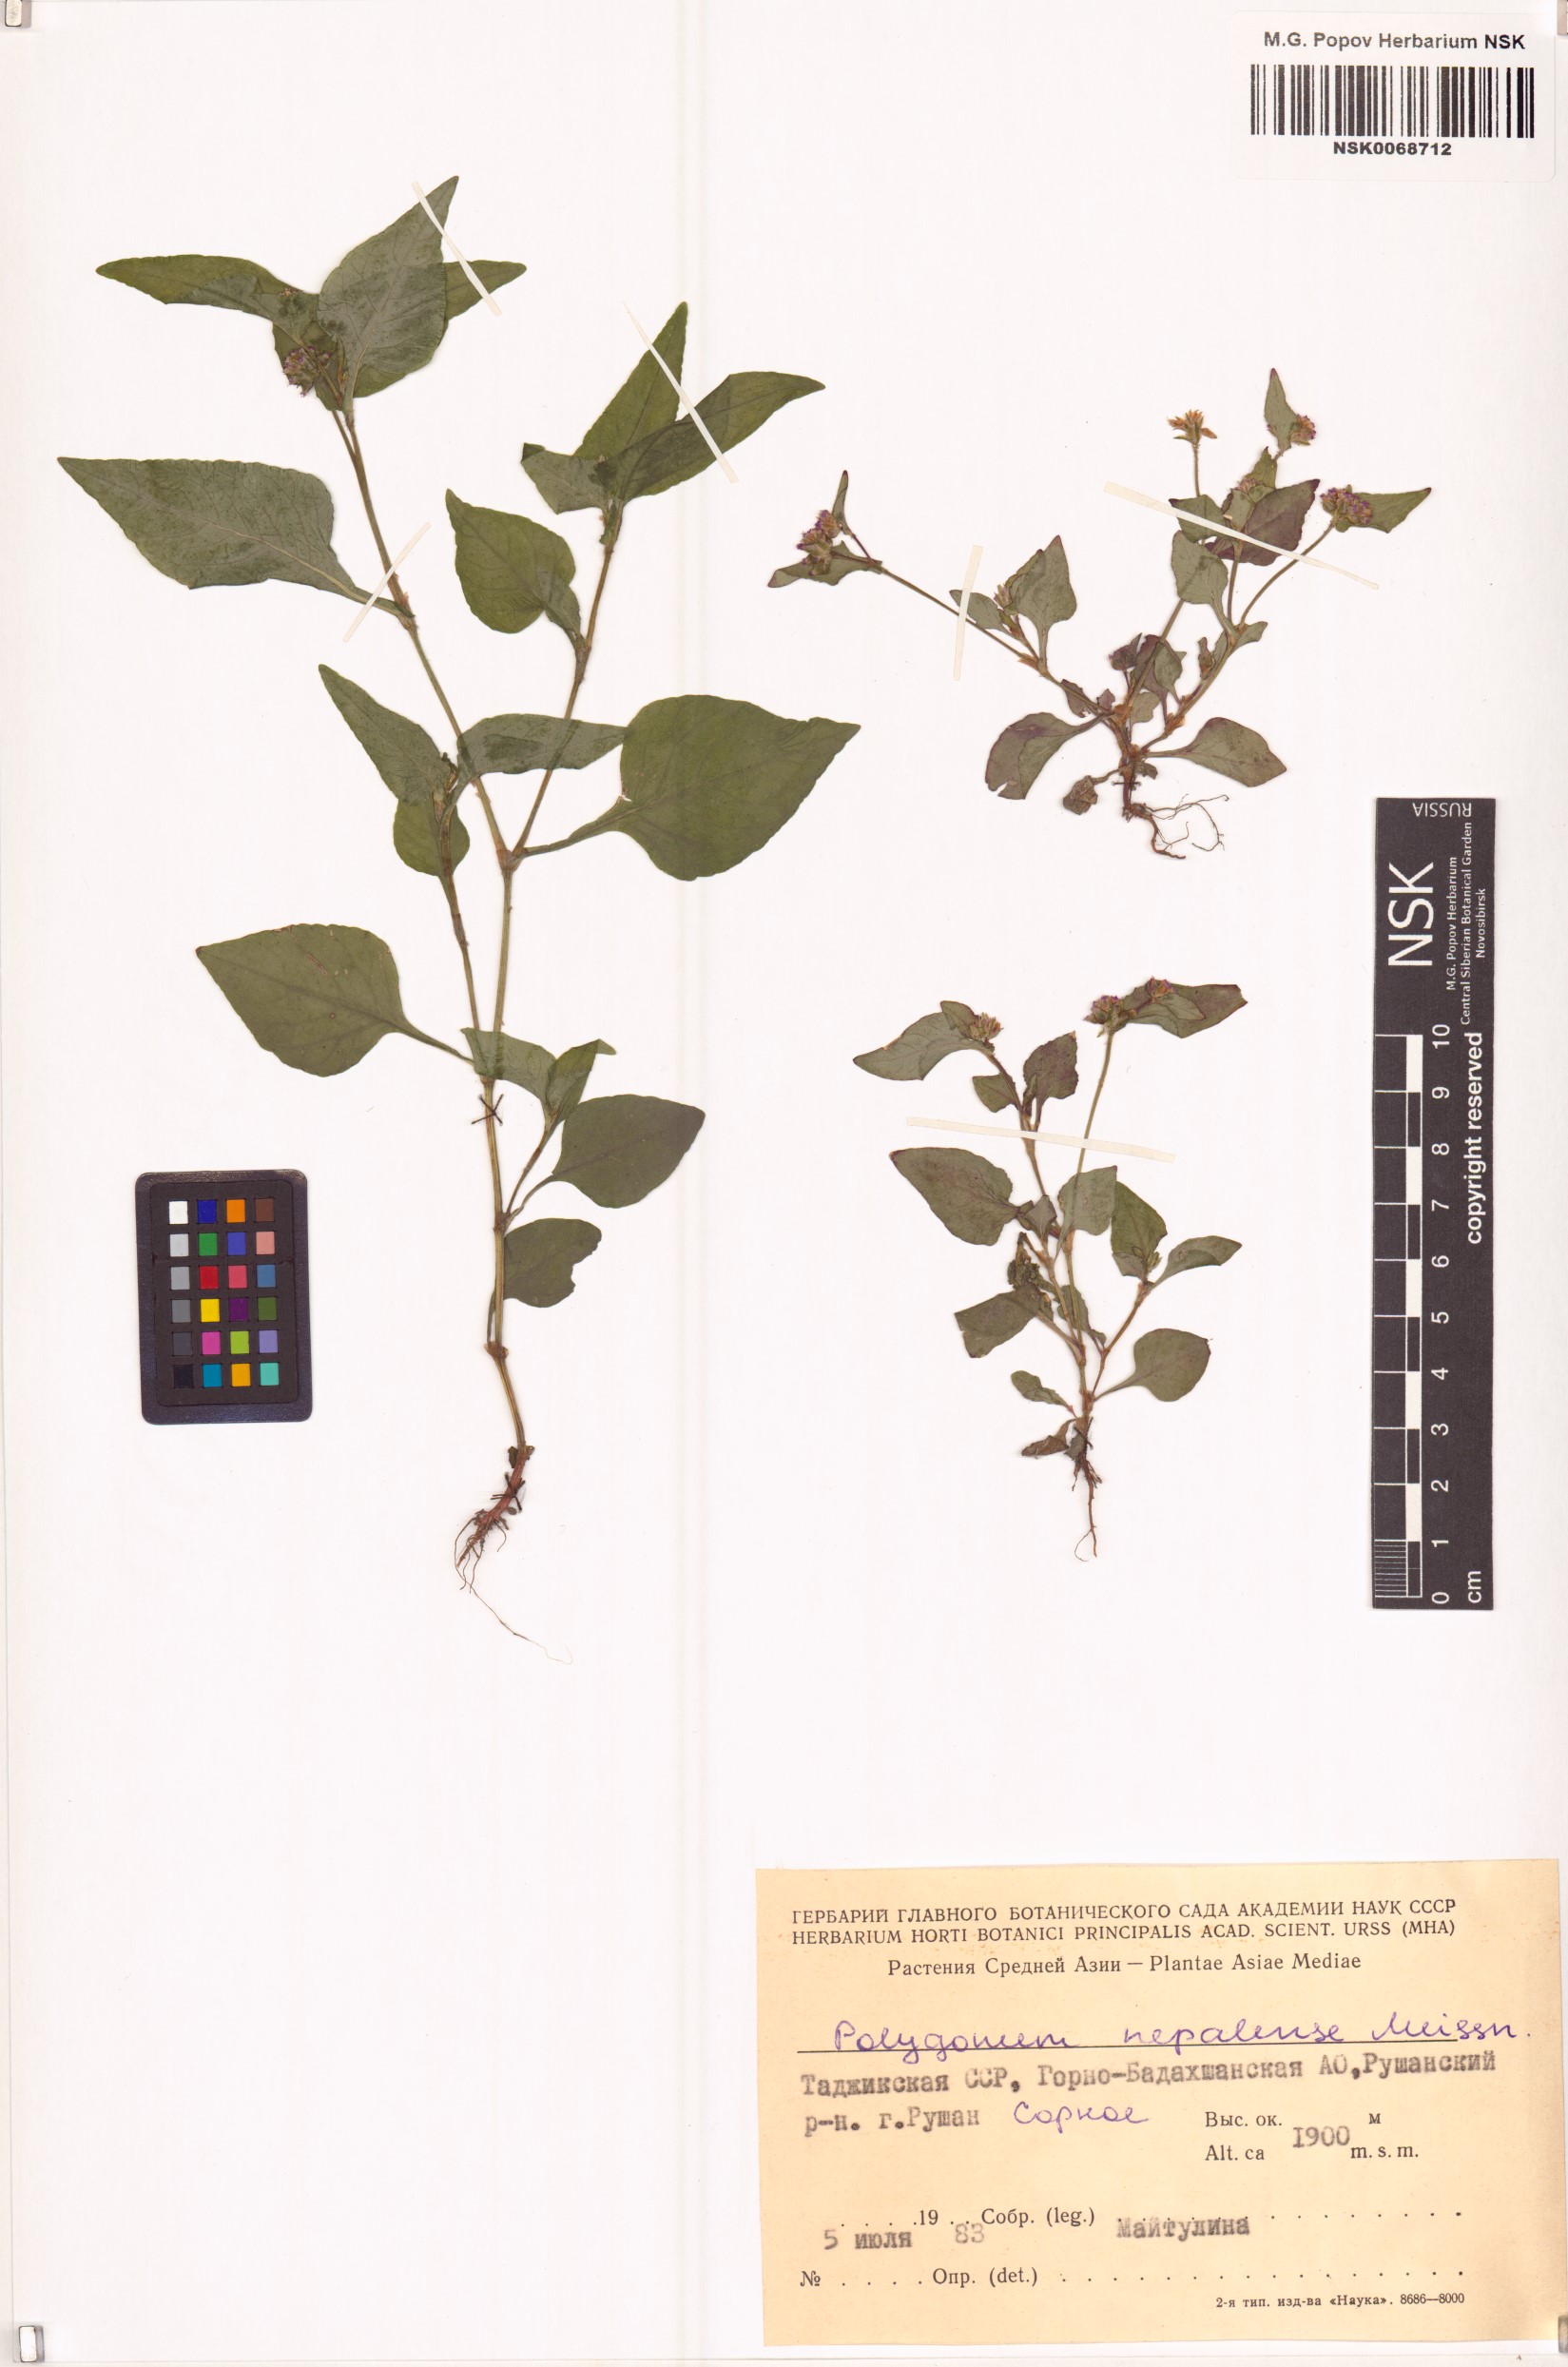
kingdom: Plantae
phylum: Tracheophyta
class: Magnoliopsida
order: Caryophyllales
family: Polygonaceae
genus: Persicaria
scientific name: Persicaria nepalensis
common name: Nepal persicaria
